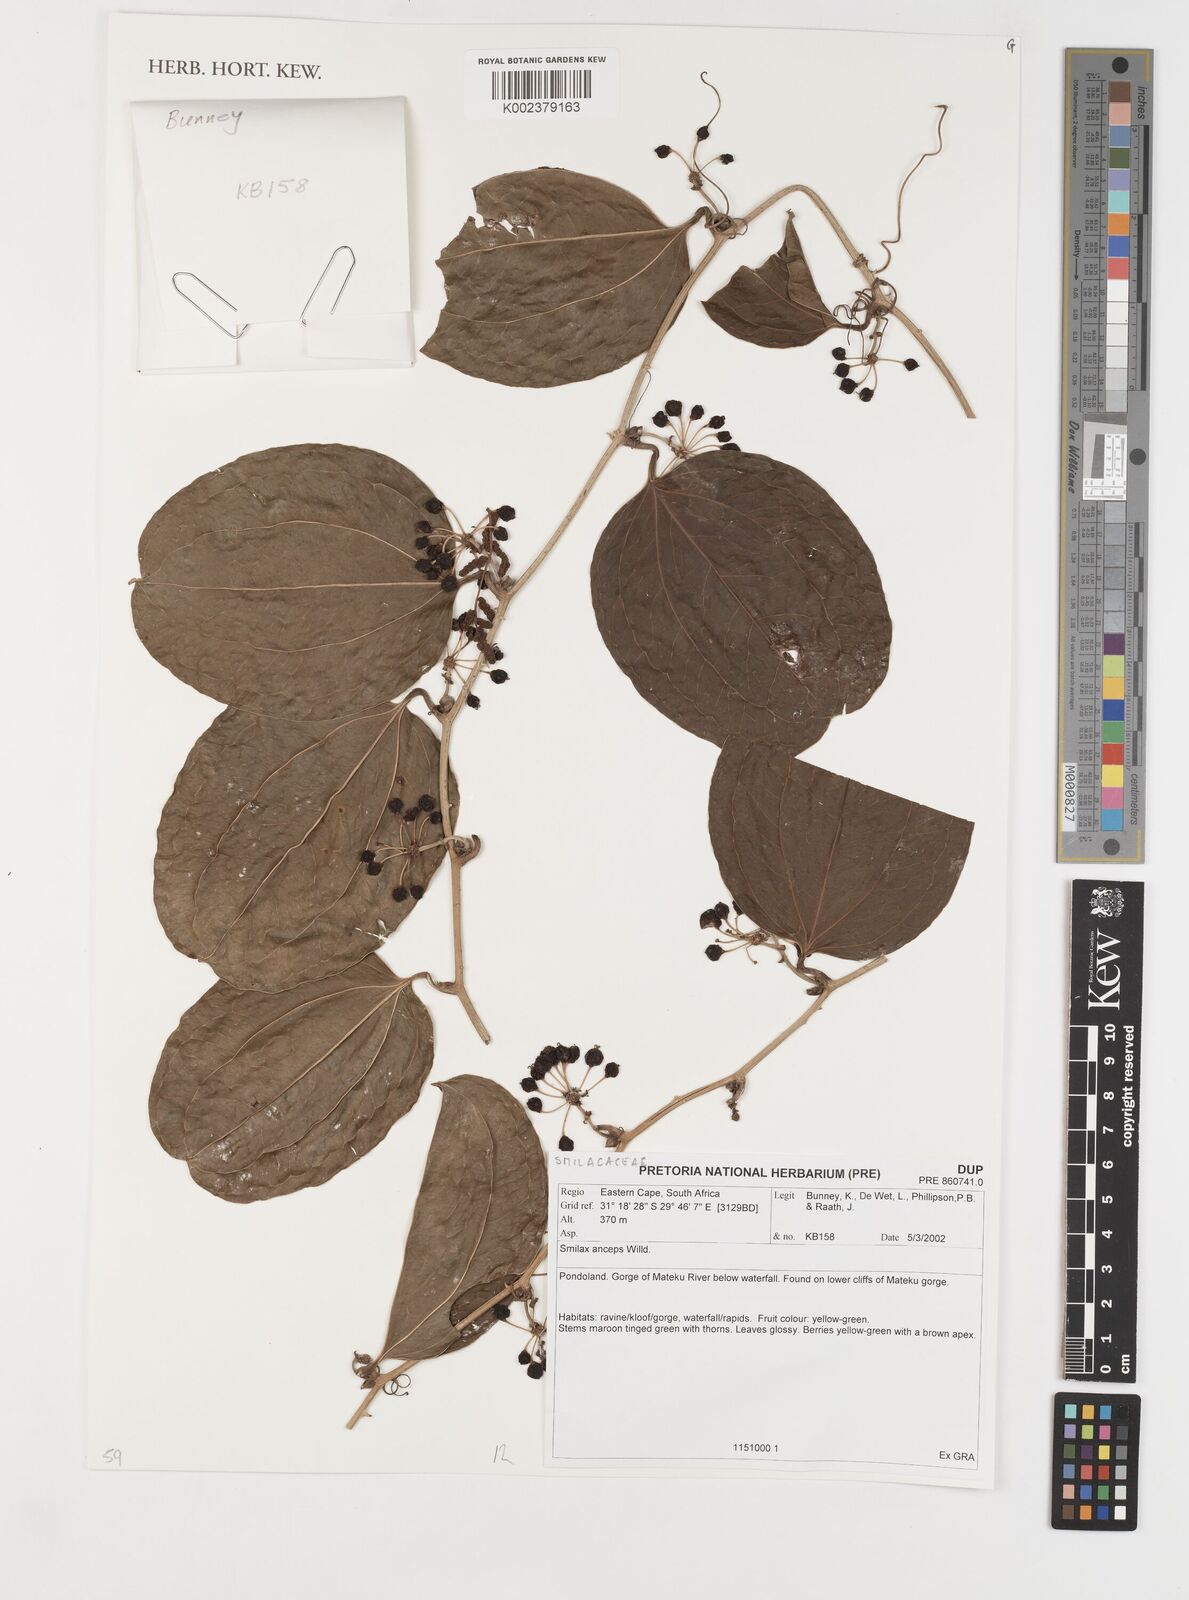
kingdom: Plantae
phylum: Tracheophyta
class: Liliopsida
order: Liliales
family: Smilacaceae
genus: Smilax
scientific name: Smilax anceps
